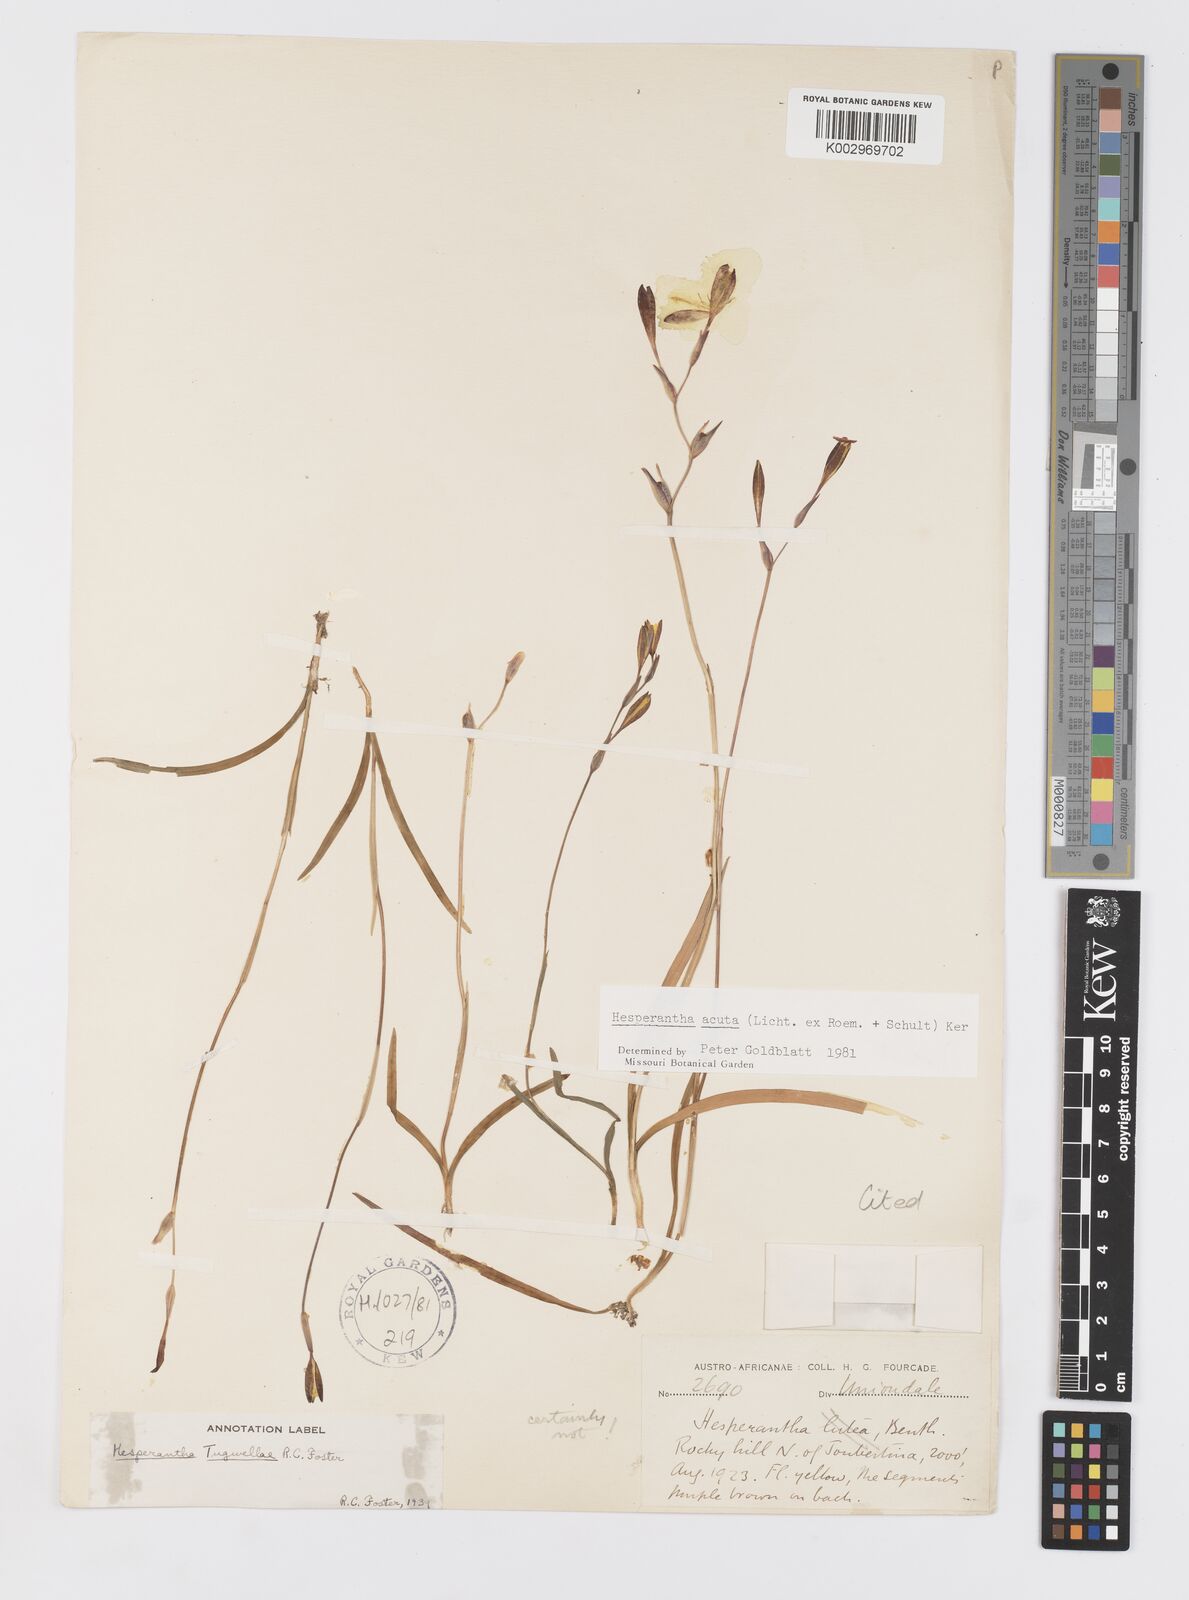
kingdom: Plantae
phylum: Tracheophyta
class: Liliopsida
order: Asparagales
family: Iridaceae
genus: Hesperantha
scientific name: Hesperantha acuta
